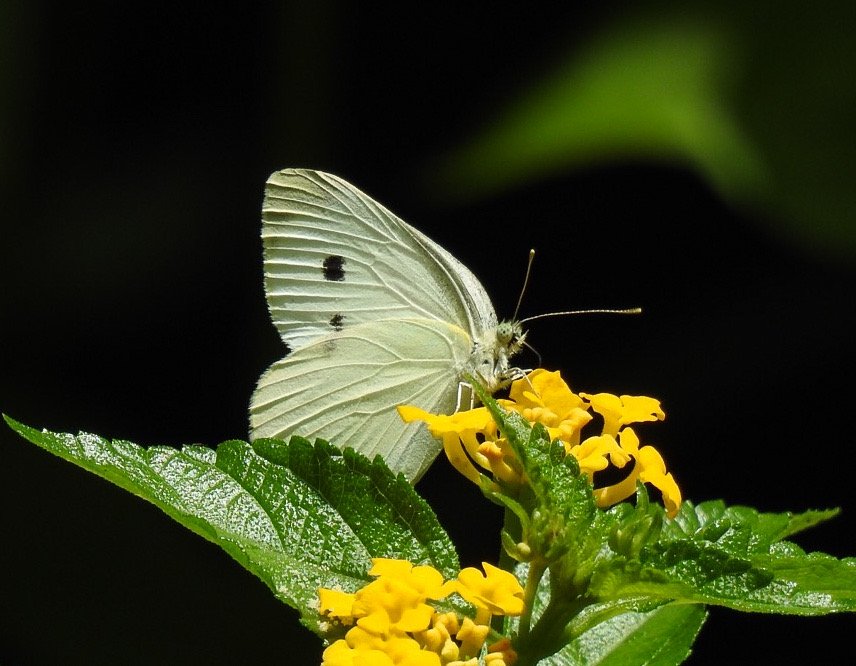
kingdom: Animalia
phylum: Arthropoda
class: Insecta
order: Lepidoptera
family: Pieridae
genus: Pieris
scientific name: Pieris rapae
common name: Cabbage White
